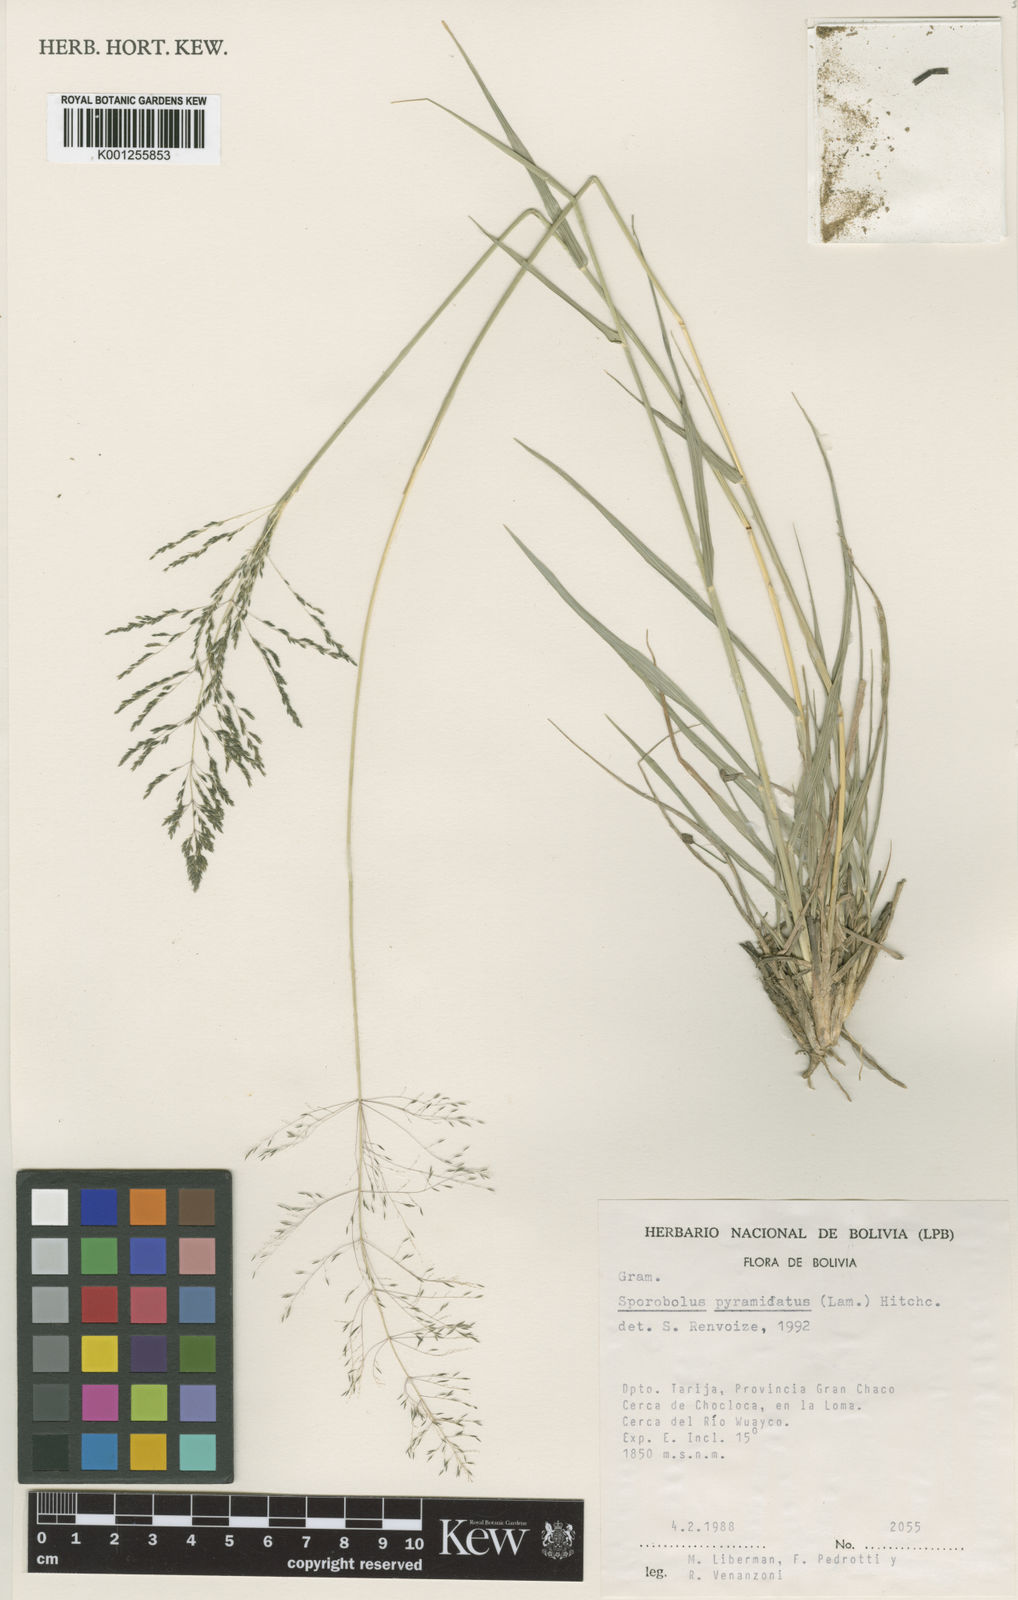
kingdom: Plantae
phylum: Tracheophyta
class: Liliopsida
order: Poales
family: Poaceae
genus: Sporobolus
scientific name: Sporobolus pyramidatus
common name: Whorled dropseed
